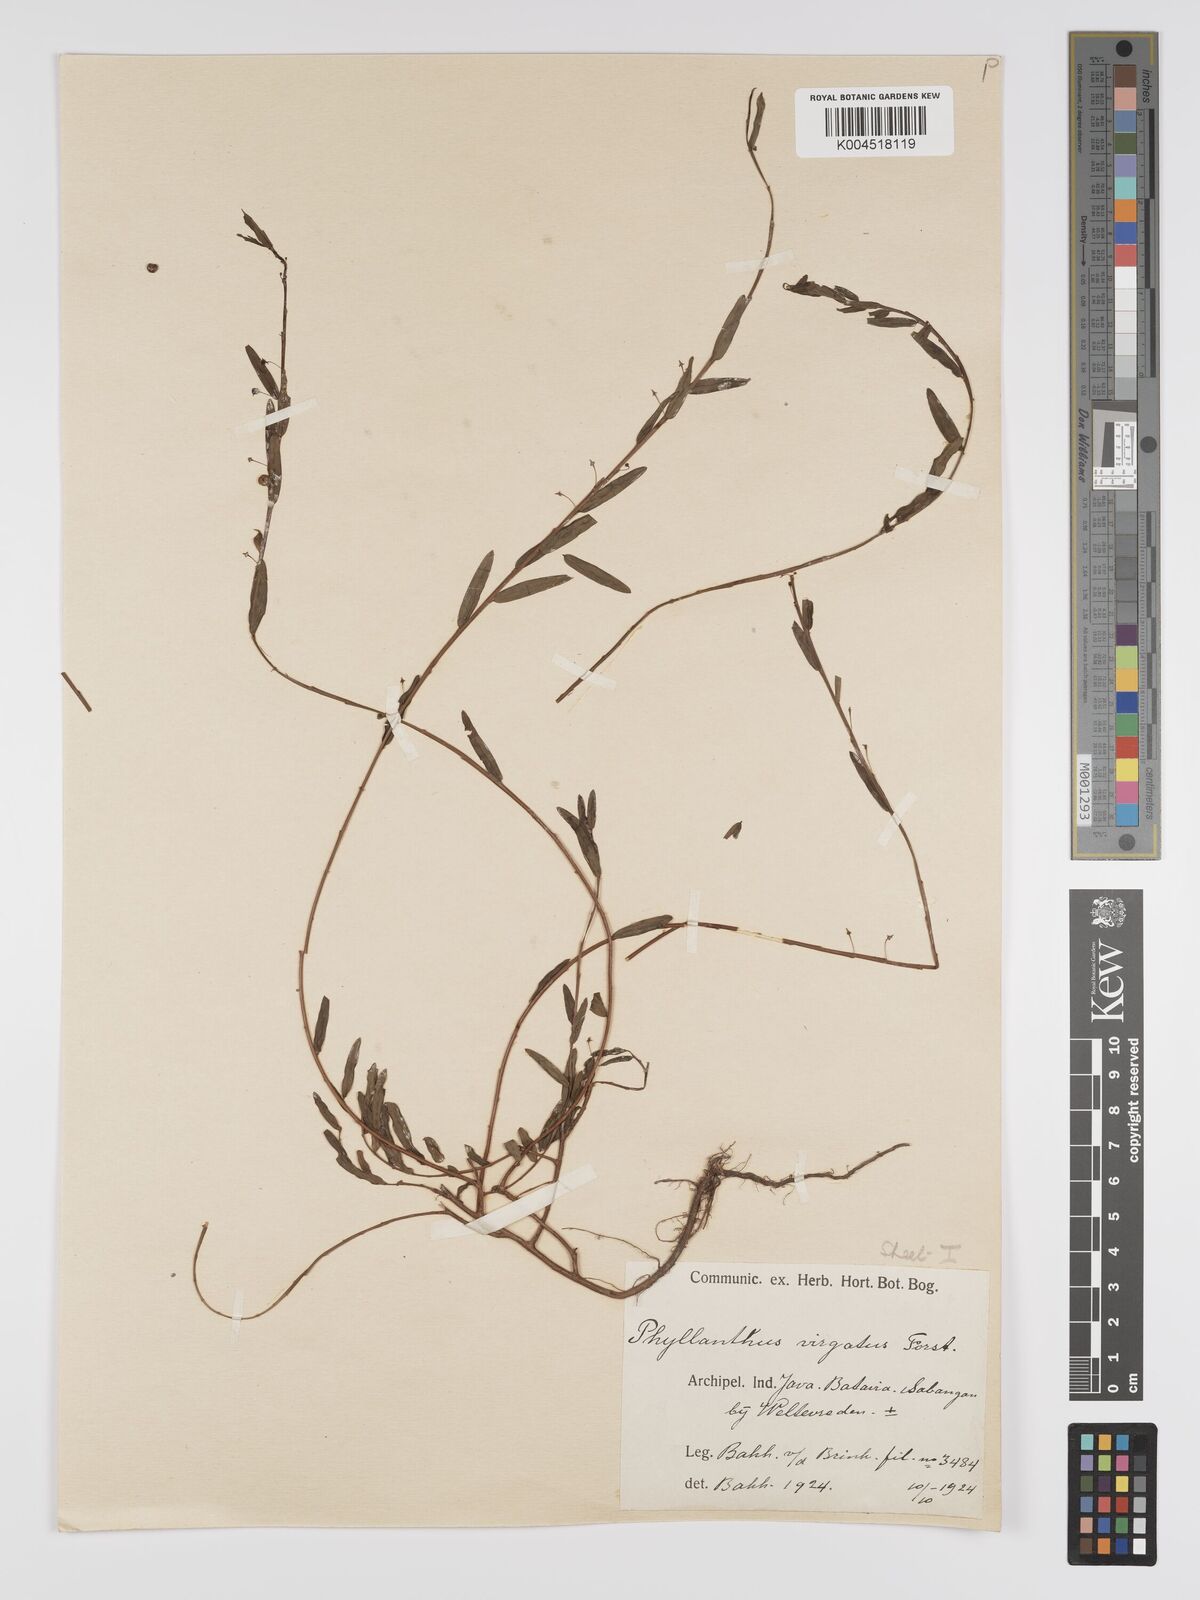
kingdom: Plantae
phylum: Tracheophyta
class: Magnoliopsida
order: Malpighiales
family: Phyllanthaceae
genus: Phyllanthus
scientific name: Phyllanthus virgatus
